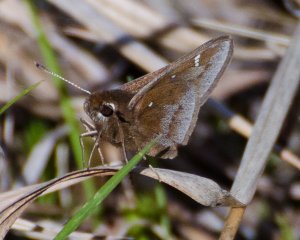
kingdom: Animalia
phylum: Arthropoda
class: Insecta
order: Lepidoptera
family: Hesperiidae
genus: Atrytonopsis
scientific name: Atrytonopsis hianna
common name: Dusted Skipper
